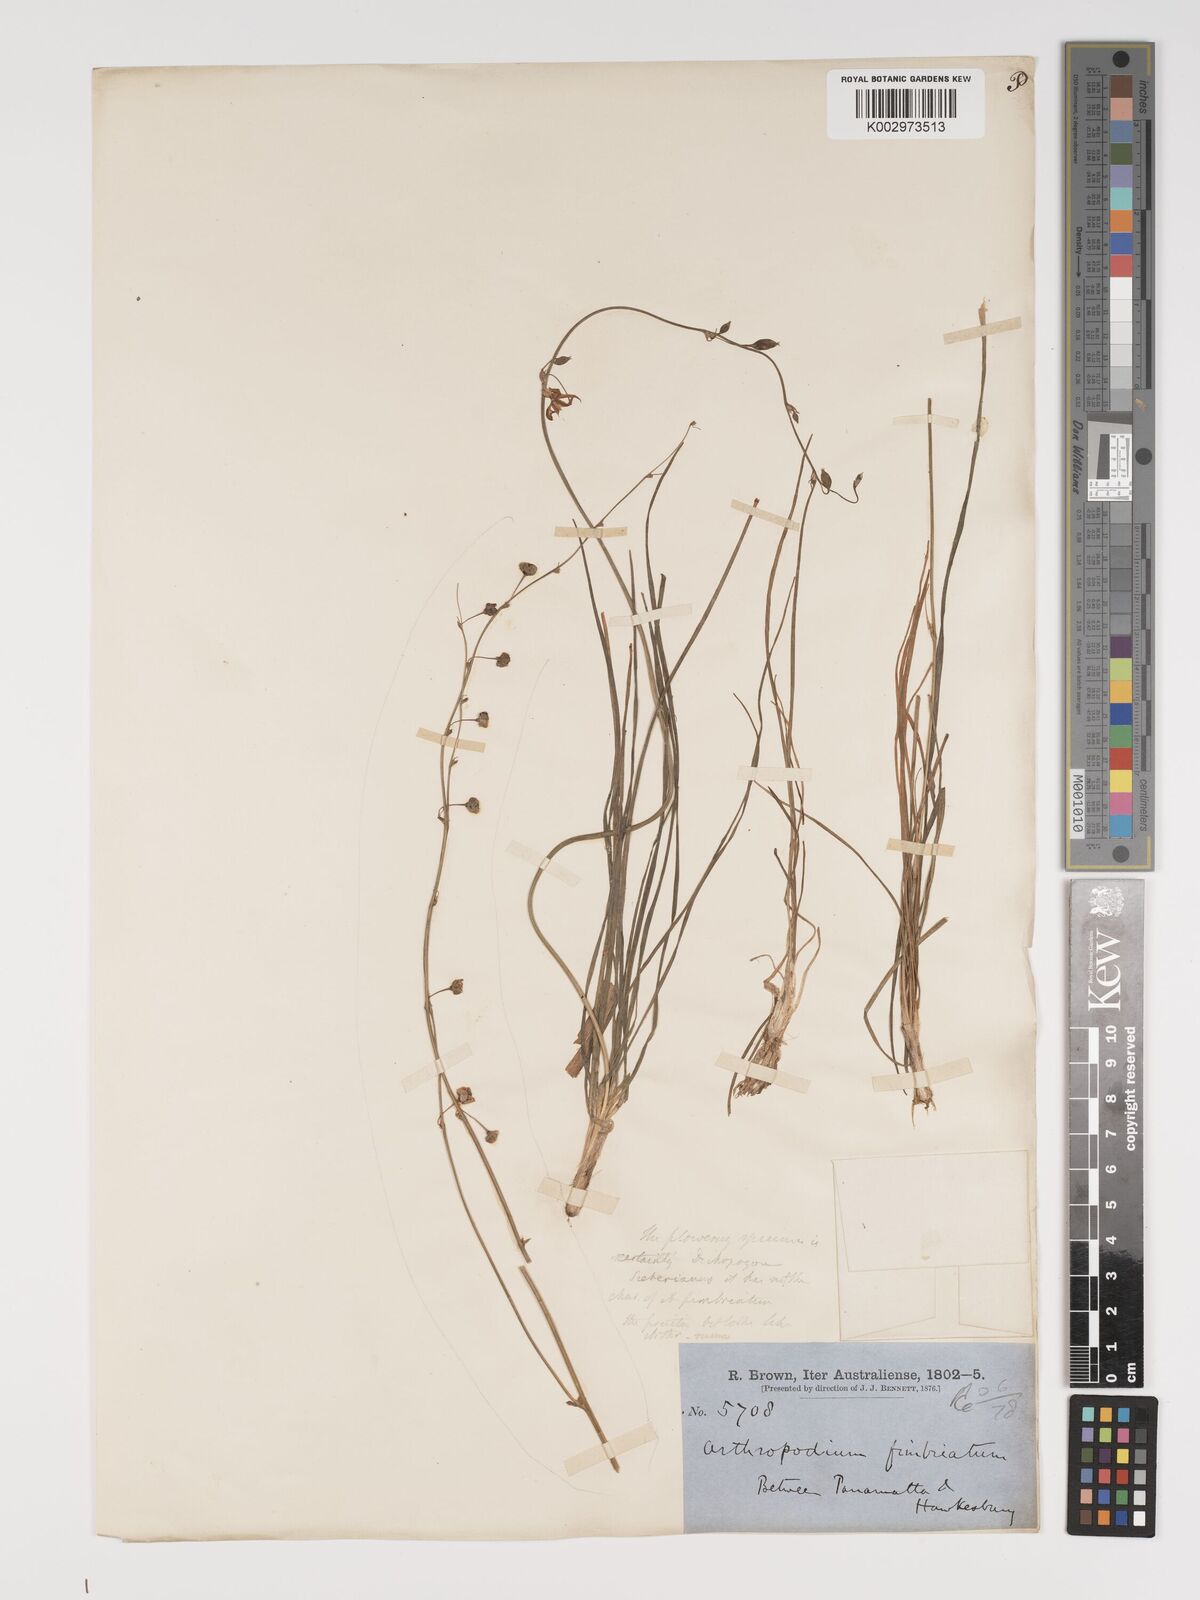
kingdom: Plantae
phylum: Tracheophyta
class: Liliopsida
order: Asparagales
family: Asparagaceae
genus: Dichopogon
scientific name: Dichopogon fimbriatus
